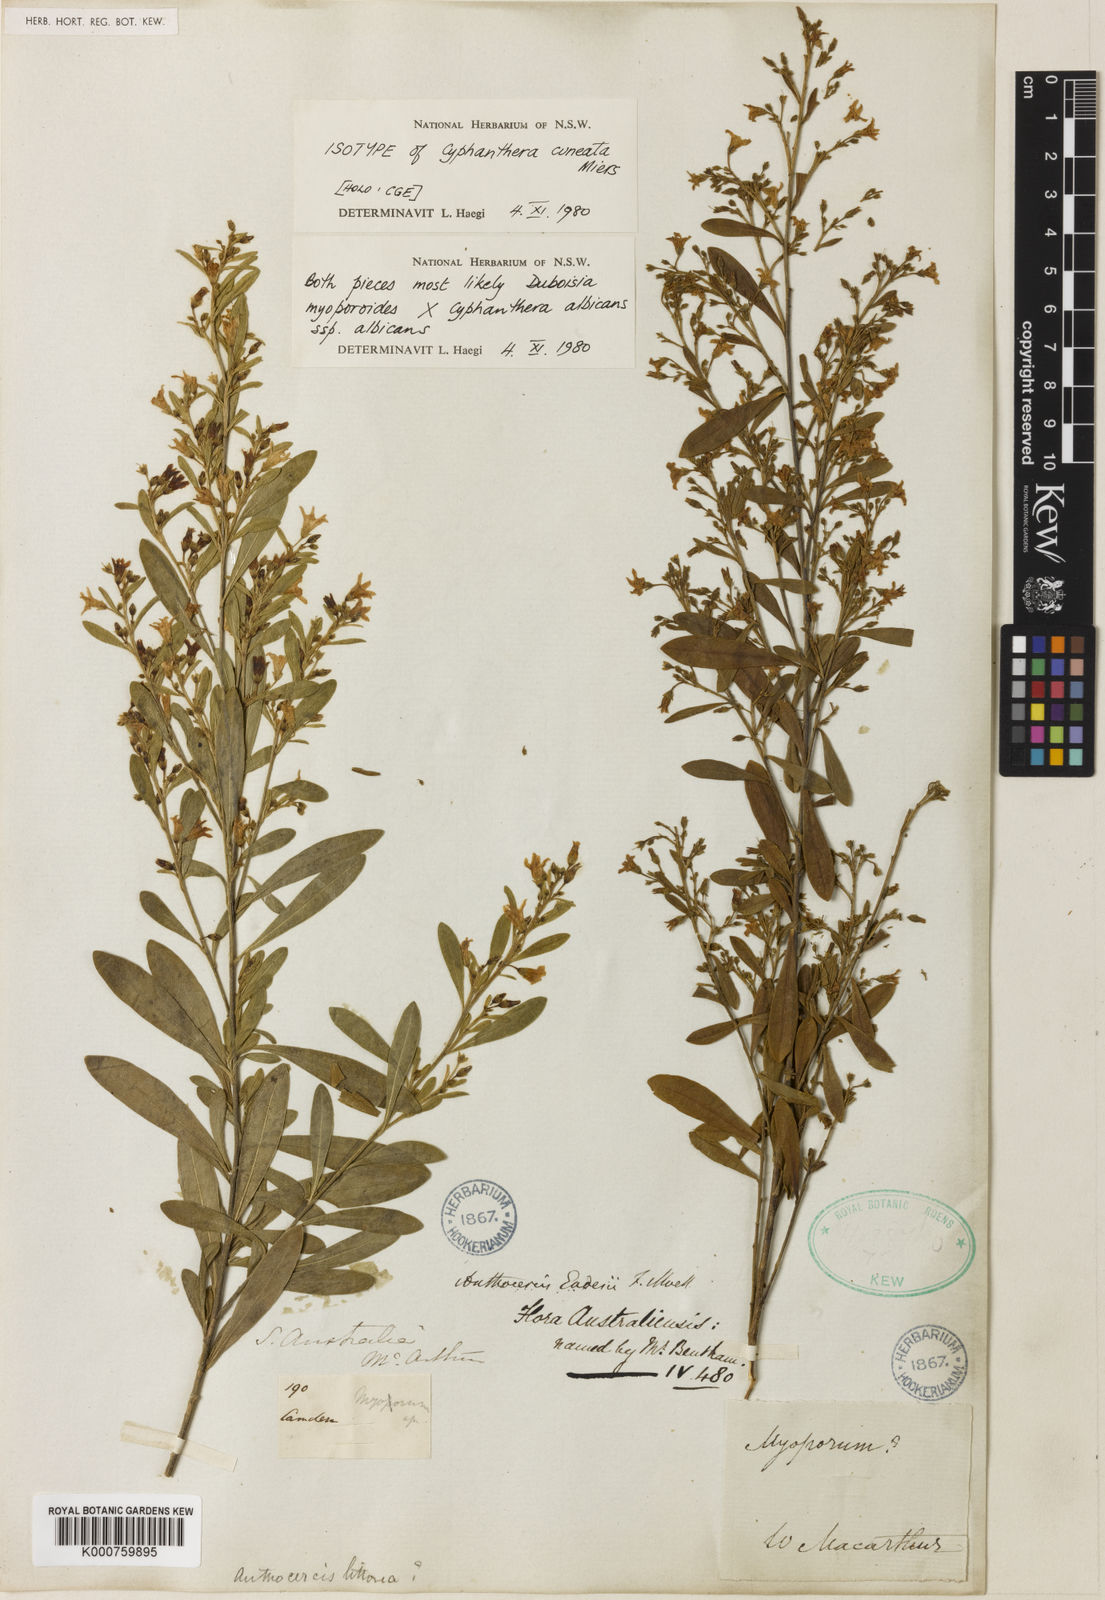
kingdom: Plantae
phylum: Tracheophyta
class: Magnoliopsida
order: Solanales
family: Solanaceae
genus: Cyphanthera
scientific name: Cyphanthera anthocercidea
